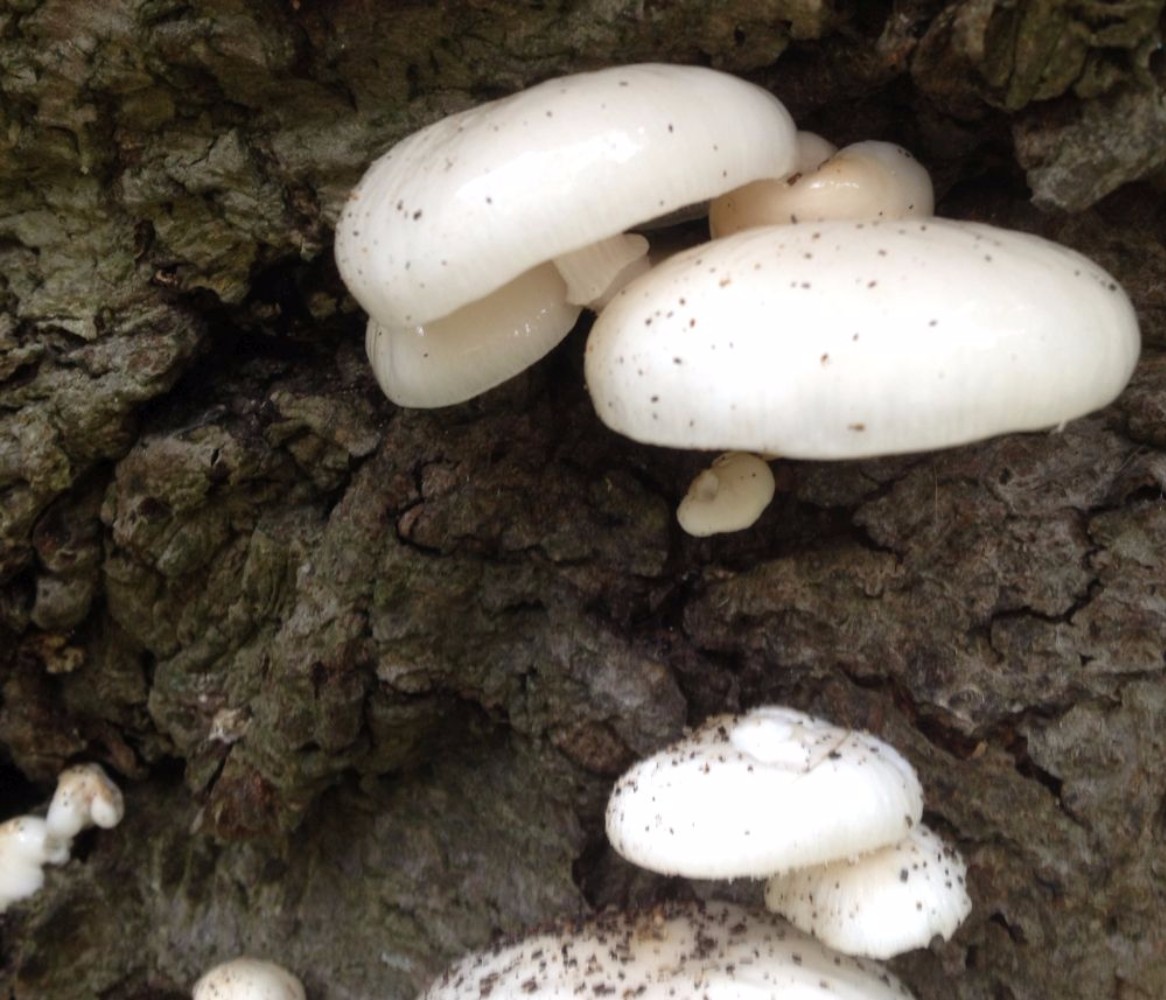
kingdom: Fungi
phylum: Basidiomycota
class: Agaricomycetes
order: Agaricales
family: Physalacriaceae
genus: Mucidula
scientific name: Mucidula mucida
